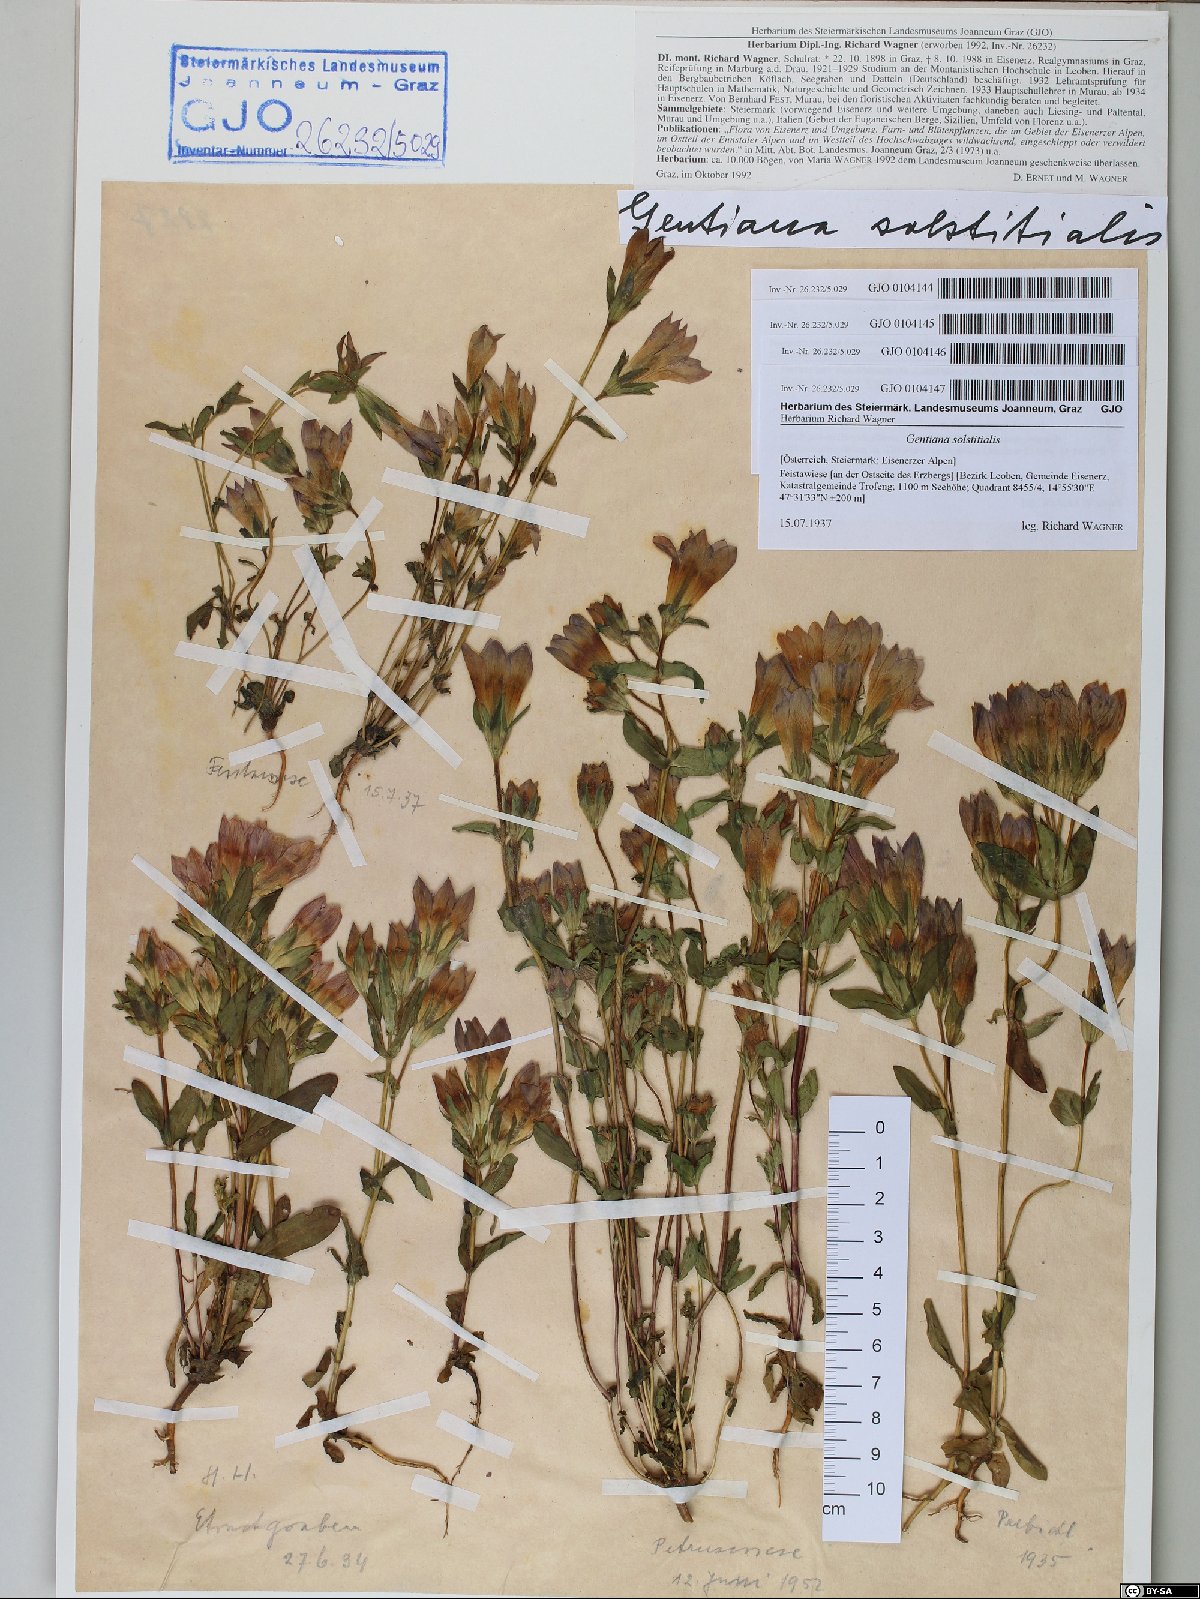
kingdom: Plantae
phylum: Tracheophyta
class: Magnoliopsida
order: Gentianales
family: Gentianaceae
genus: Gentianella
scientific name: Gentianella germanica
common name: Chiltern-gentian
